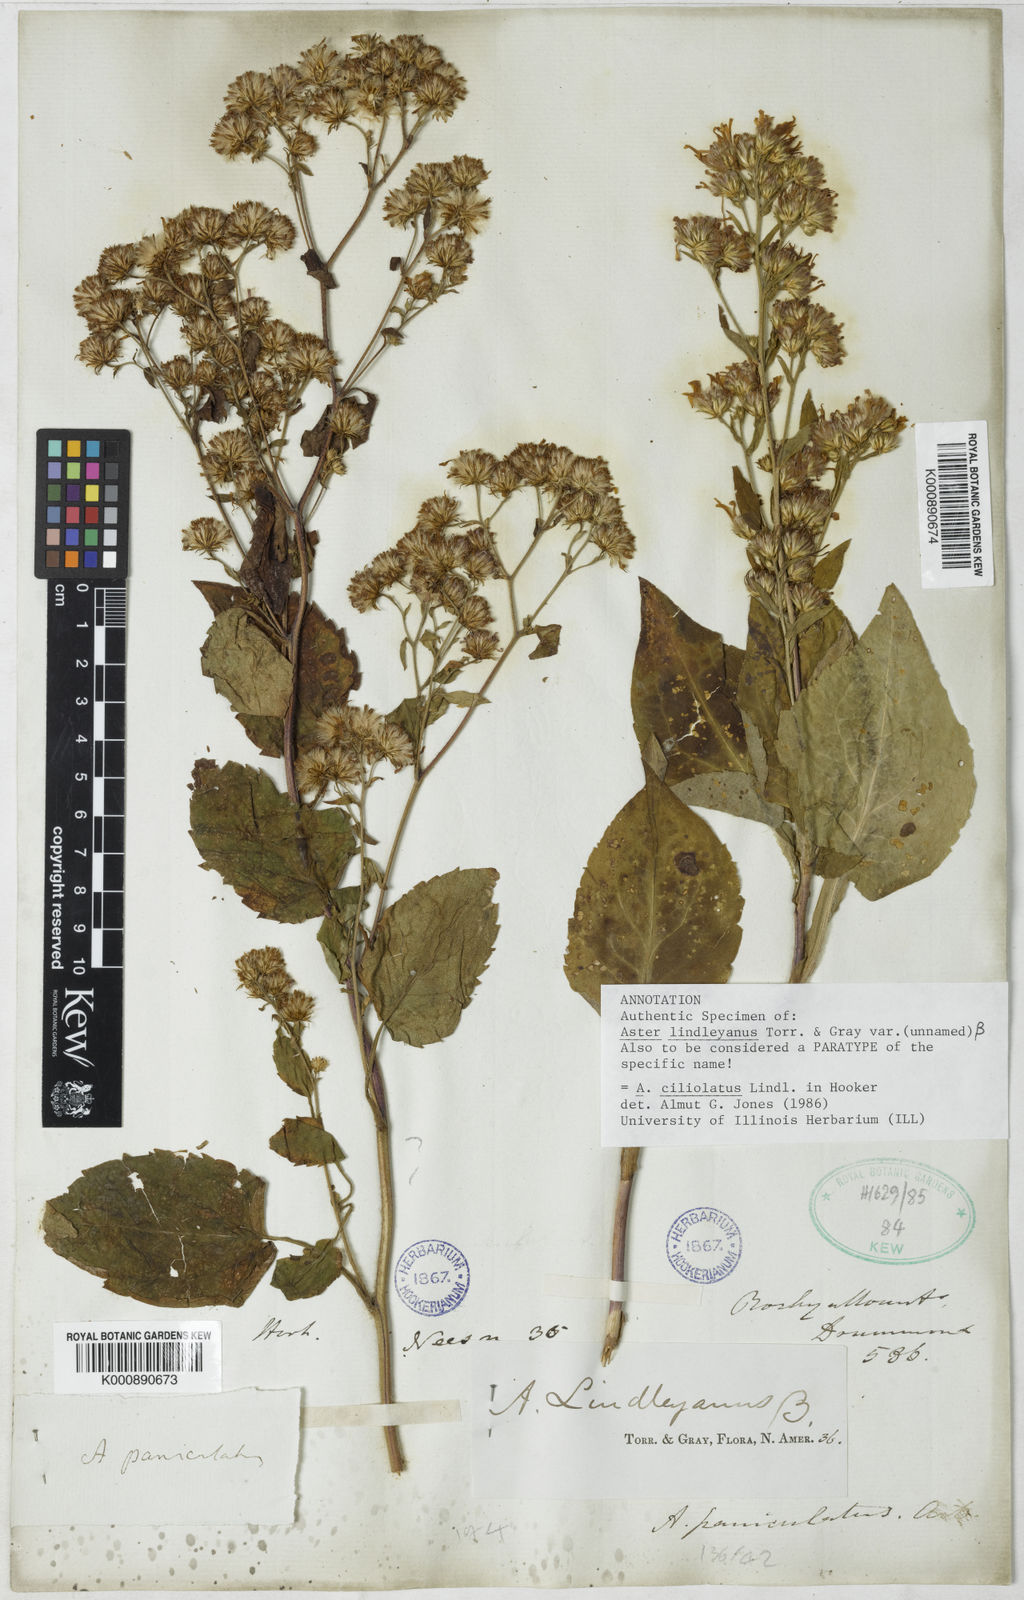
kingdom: Plantae
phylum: Tracheophyta
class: Magnoliopsida
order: Asterales
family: Asteraceae
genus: Symphyotrichum
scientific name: Symphyotrichum ciliolatum
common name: Fringed blue aster
